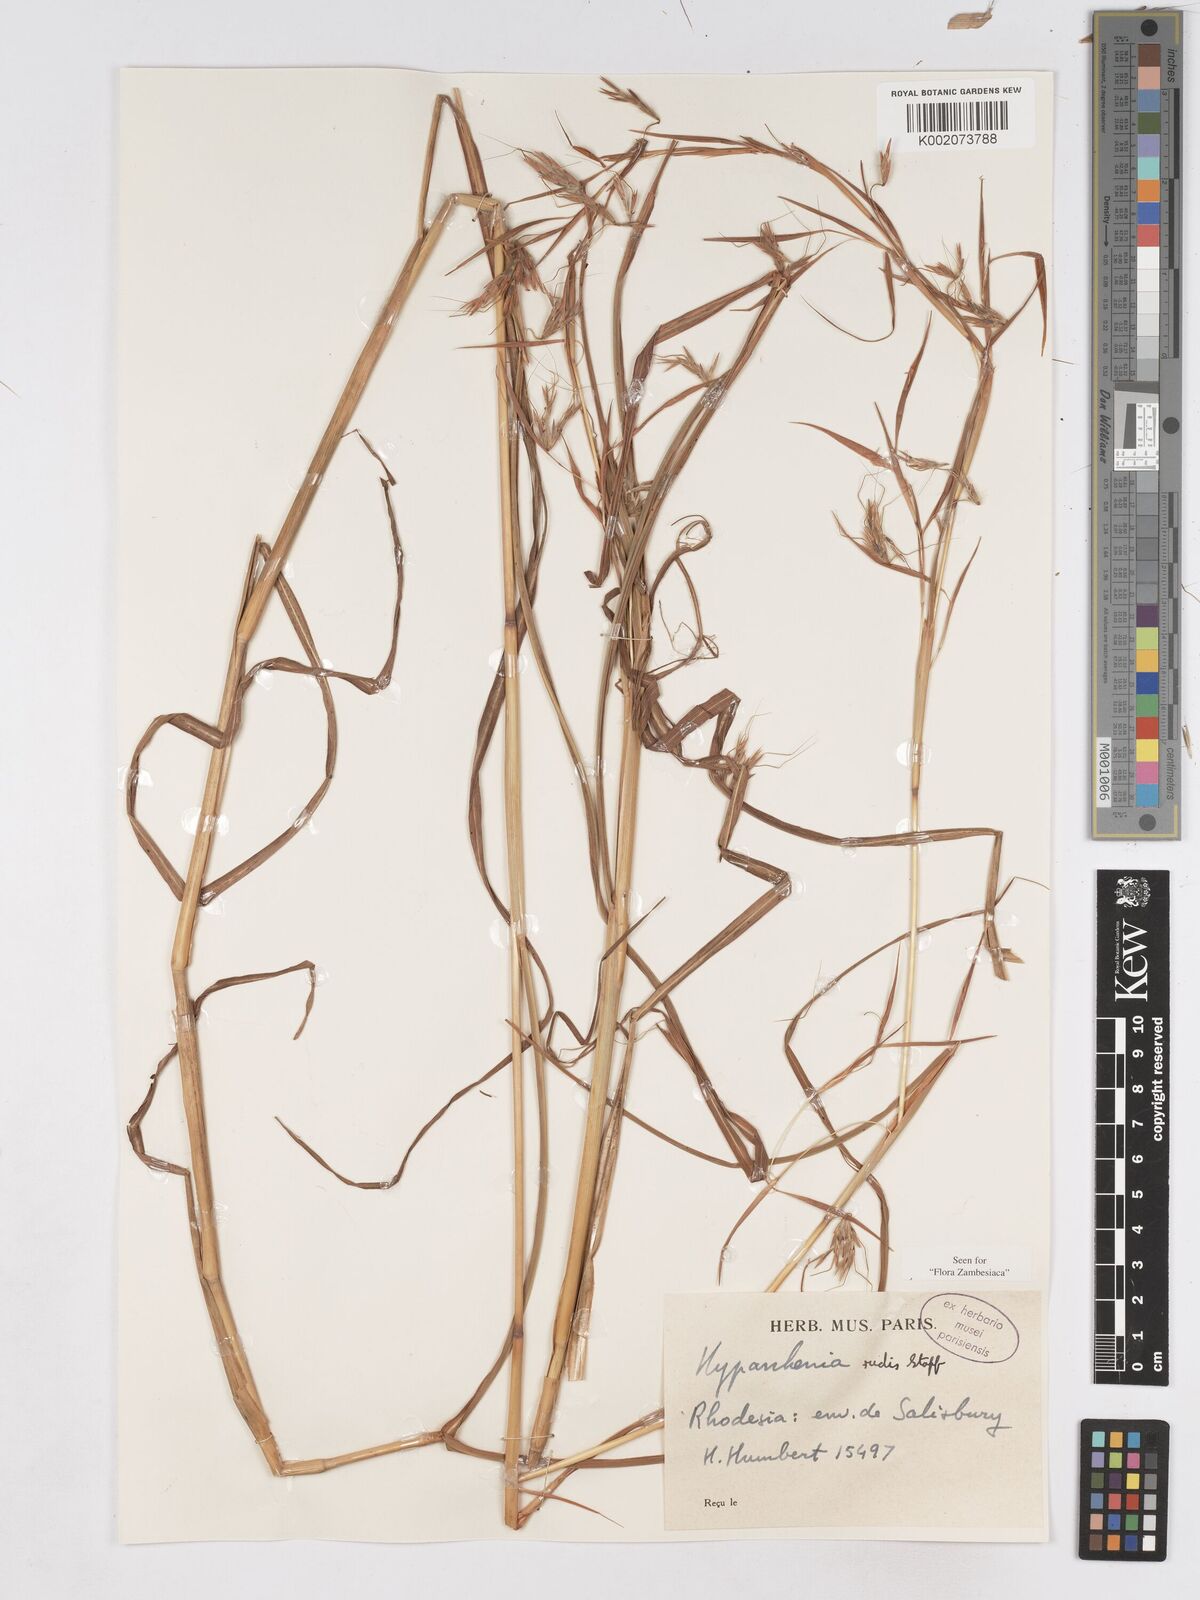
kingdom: Plantae
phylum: Tracheophyta
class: Liliopsida
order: Poales
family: Poaceae
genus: Hyparrhenia
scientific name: Hyparrhenia rudis
